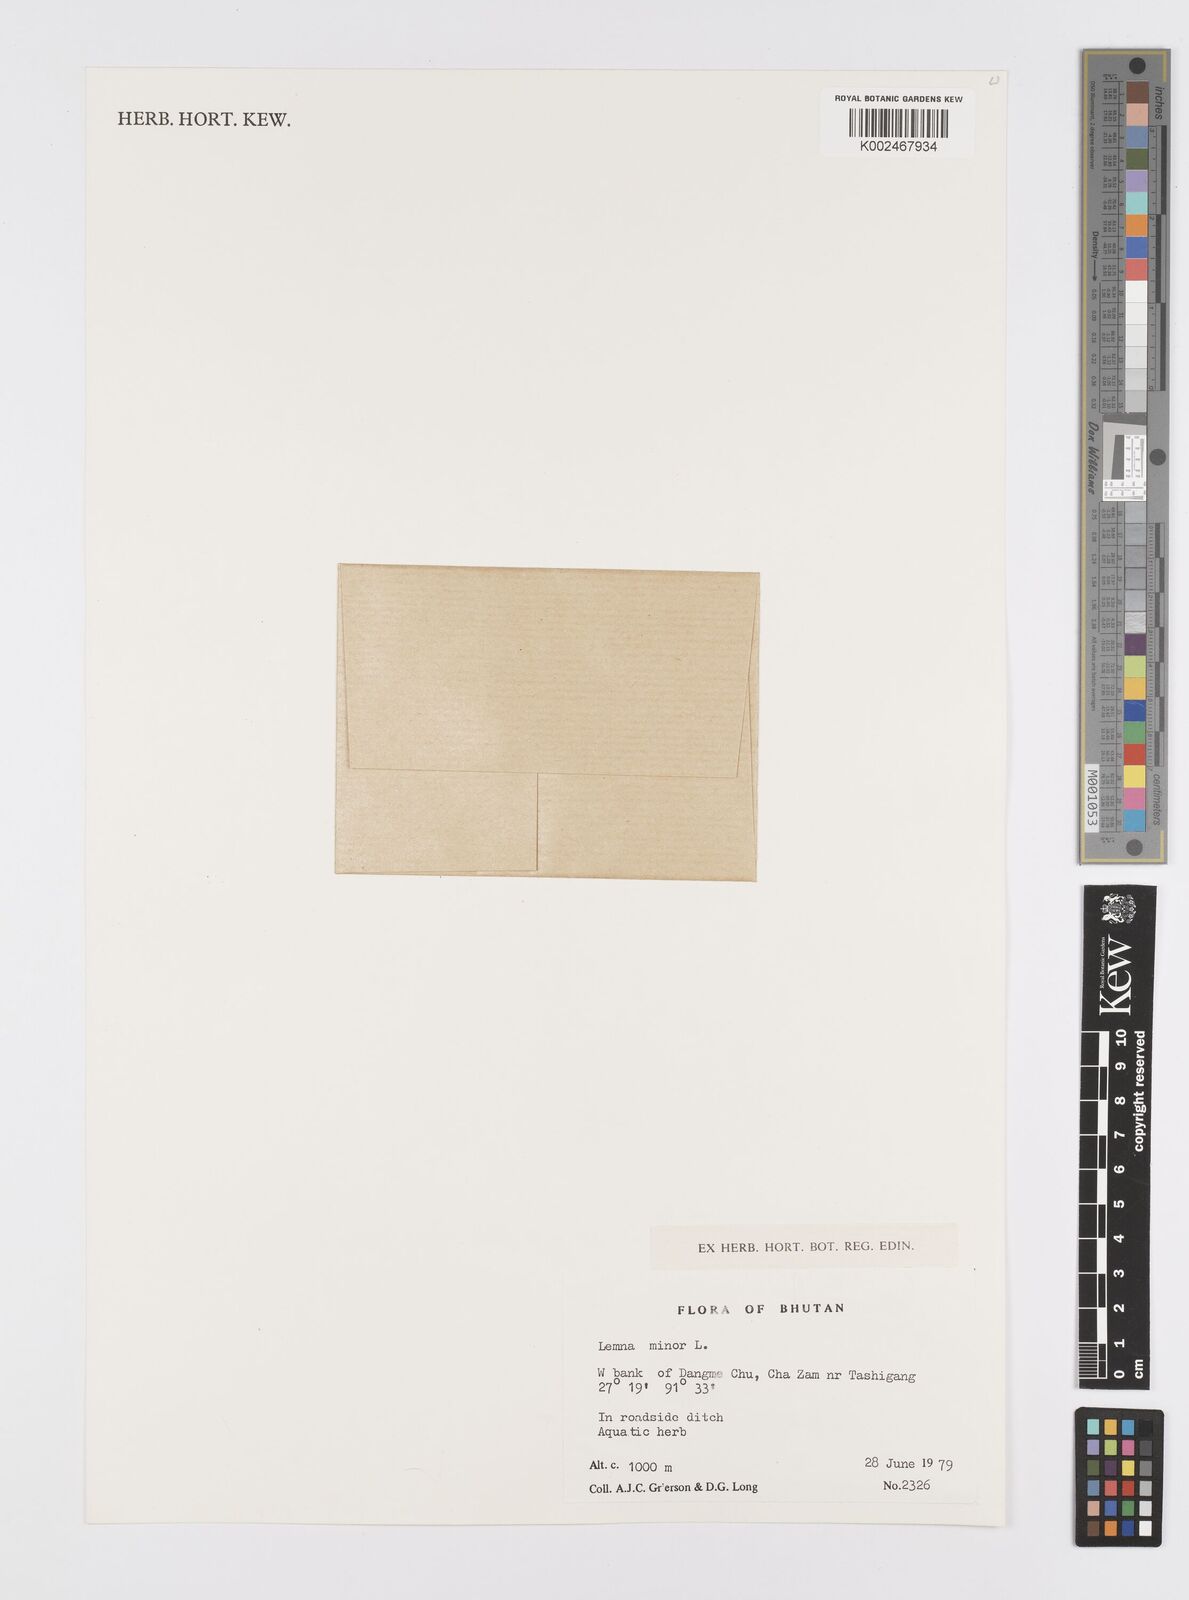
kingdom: Plantae
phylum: Tracheophyta
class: Liliopsida
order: Alismatales
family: Araceae
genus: Lemna
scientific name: Lemna minor
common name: Common duckweed
